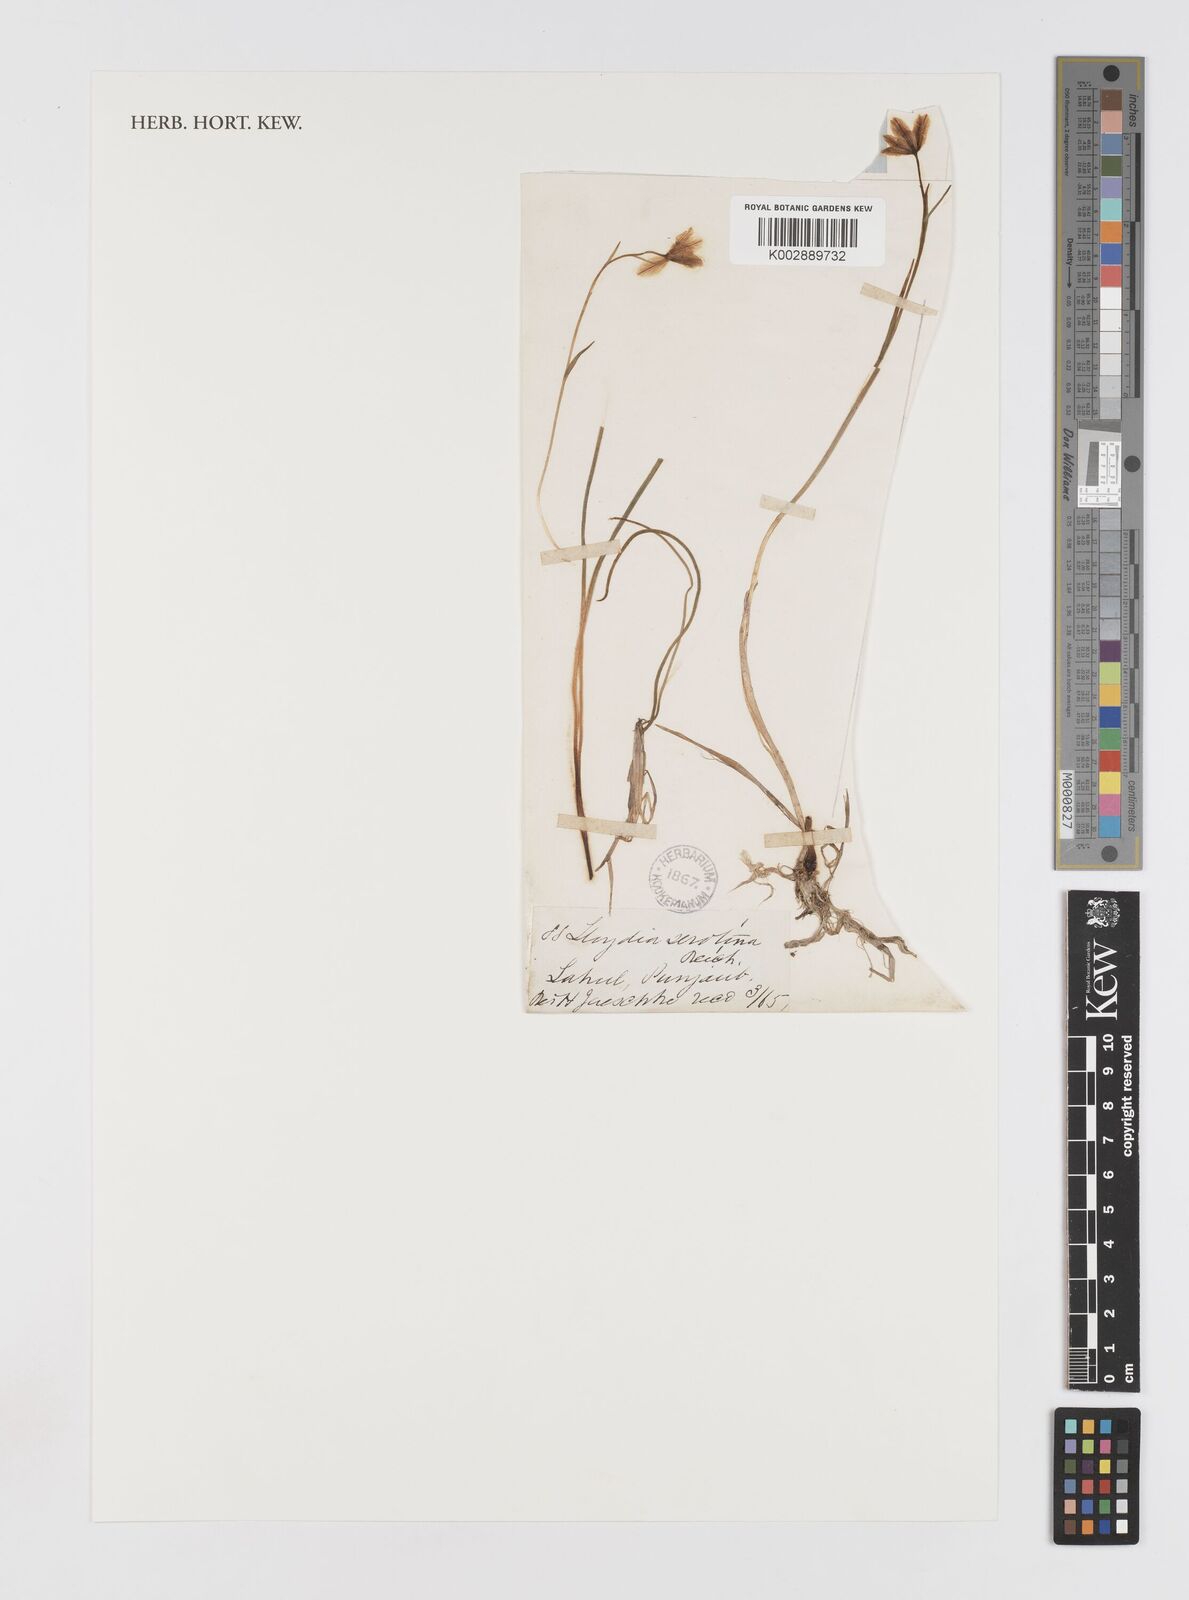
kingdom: Plantae
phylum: Tracheophyta
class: Liliopsida
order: Liliales
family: Liliaceae
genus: Gagea
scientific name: Gagea serotina
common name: Snowdon lily
